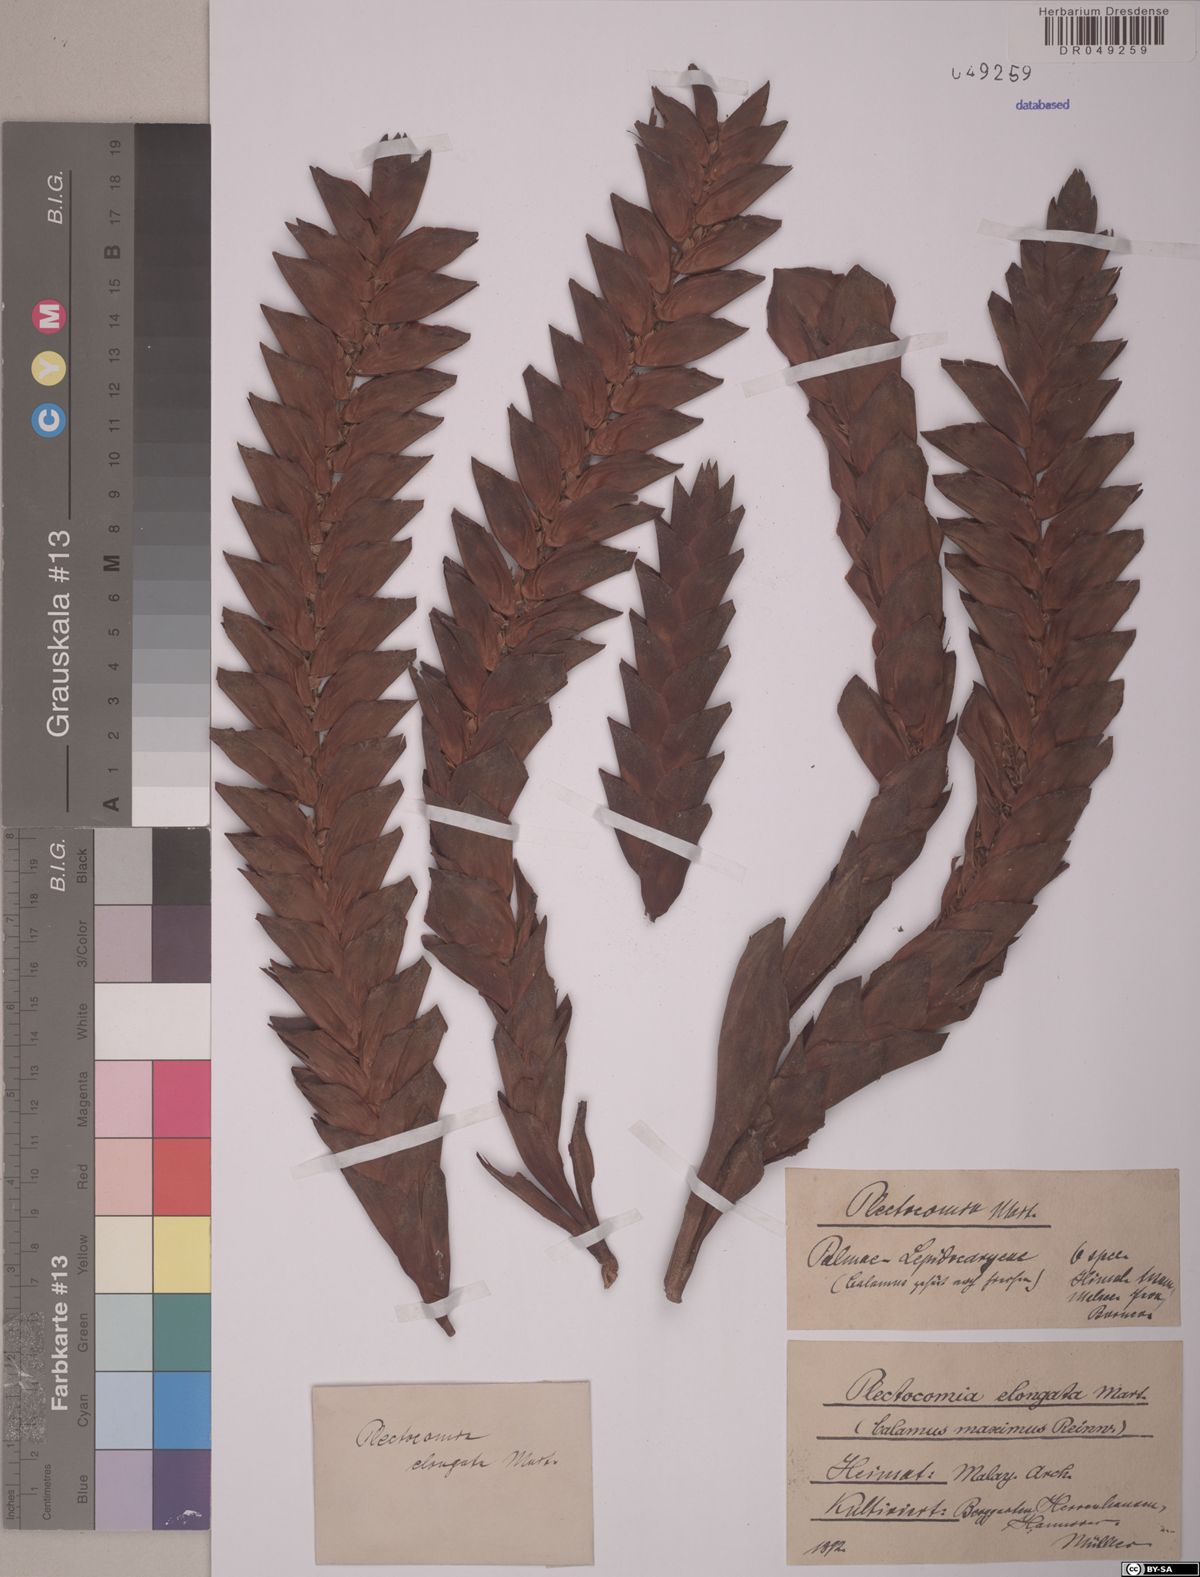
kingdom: Plantae
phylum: Tracheophyta
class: Liliopsida
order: Arecales
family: Arecaceae
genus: Plectocomia
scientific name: Plectocomia elongata
